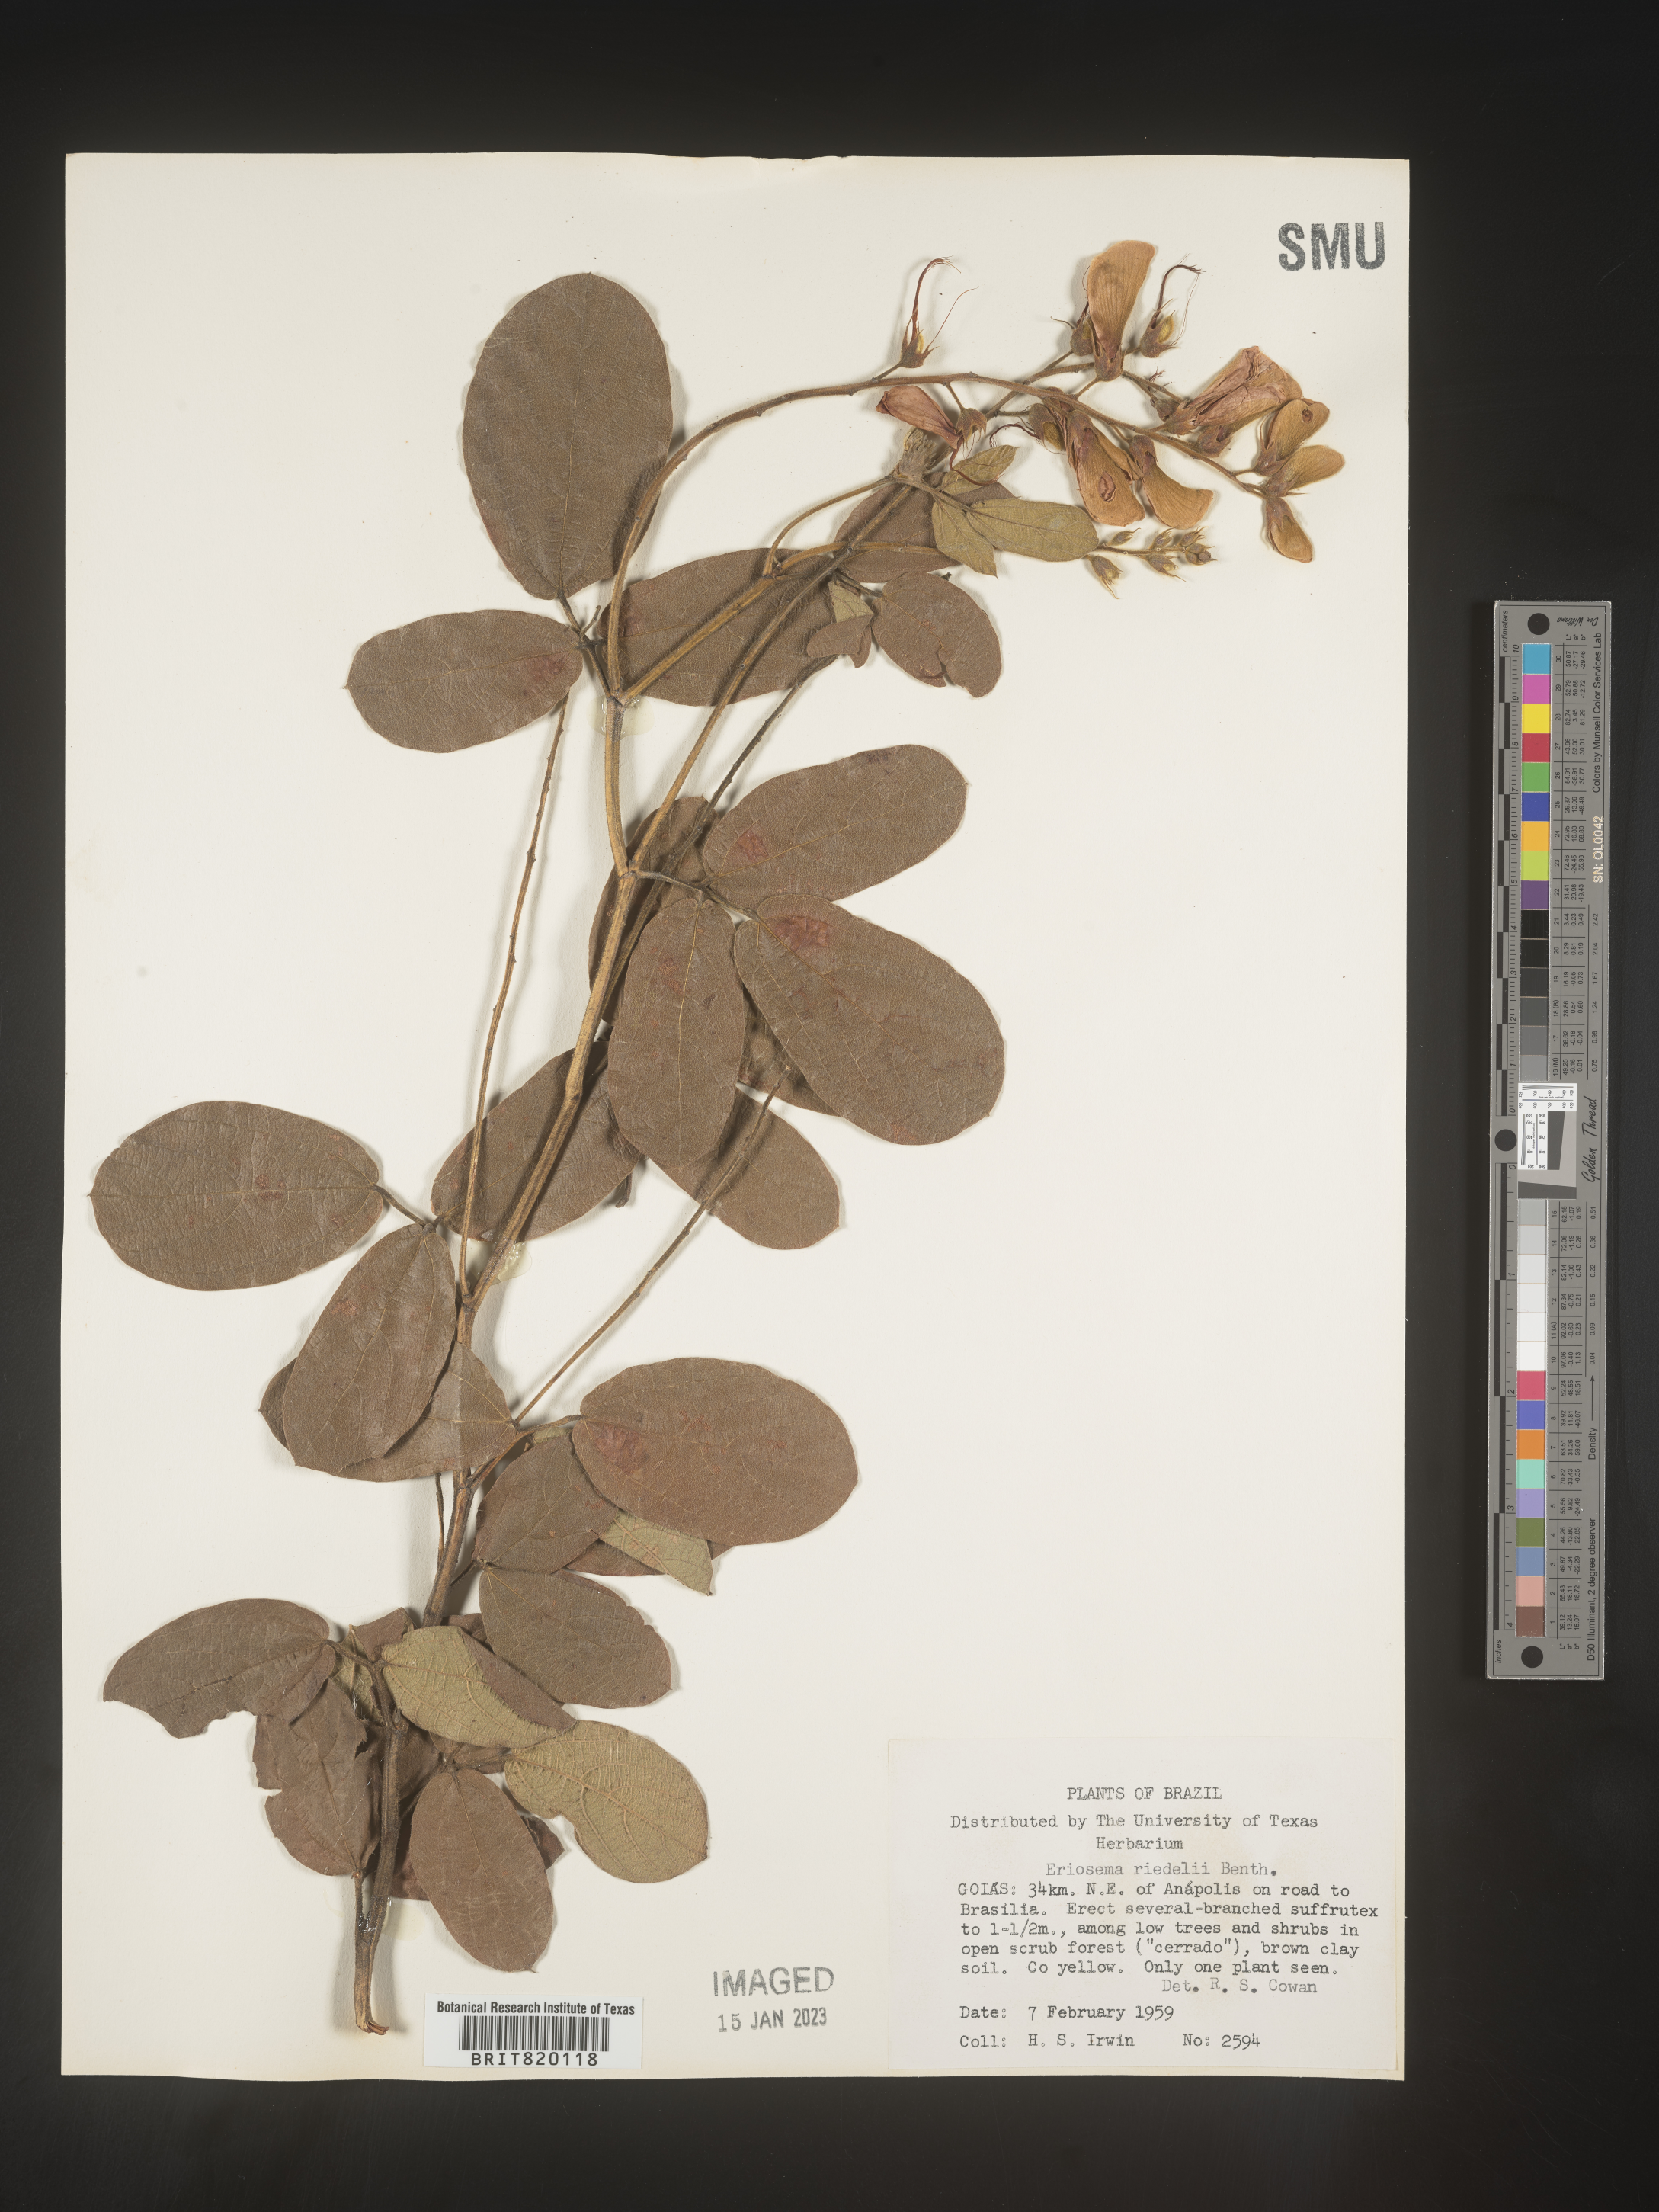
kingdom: Plantae
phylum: Tracheophyta
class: Magnoliopsida
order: Fabales
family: Fabaceae
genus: Eriosema
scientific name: Eriosema
